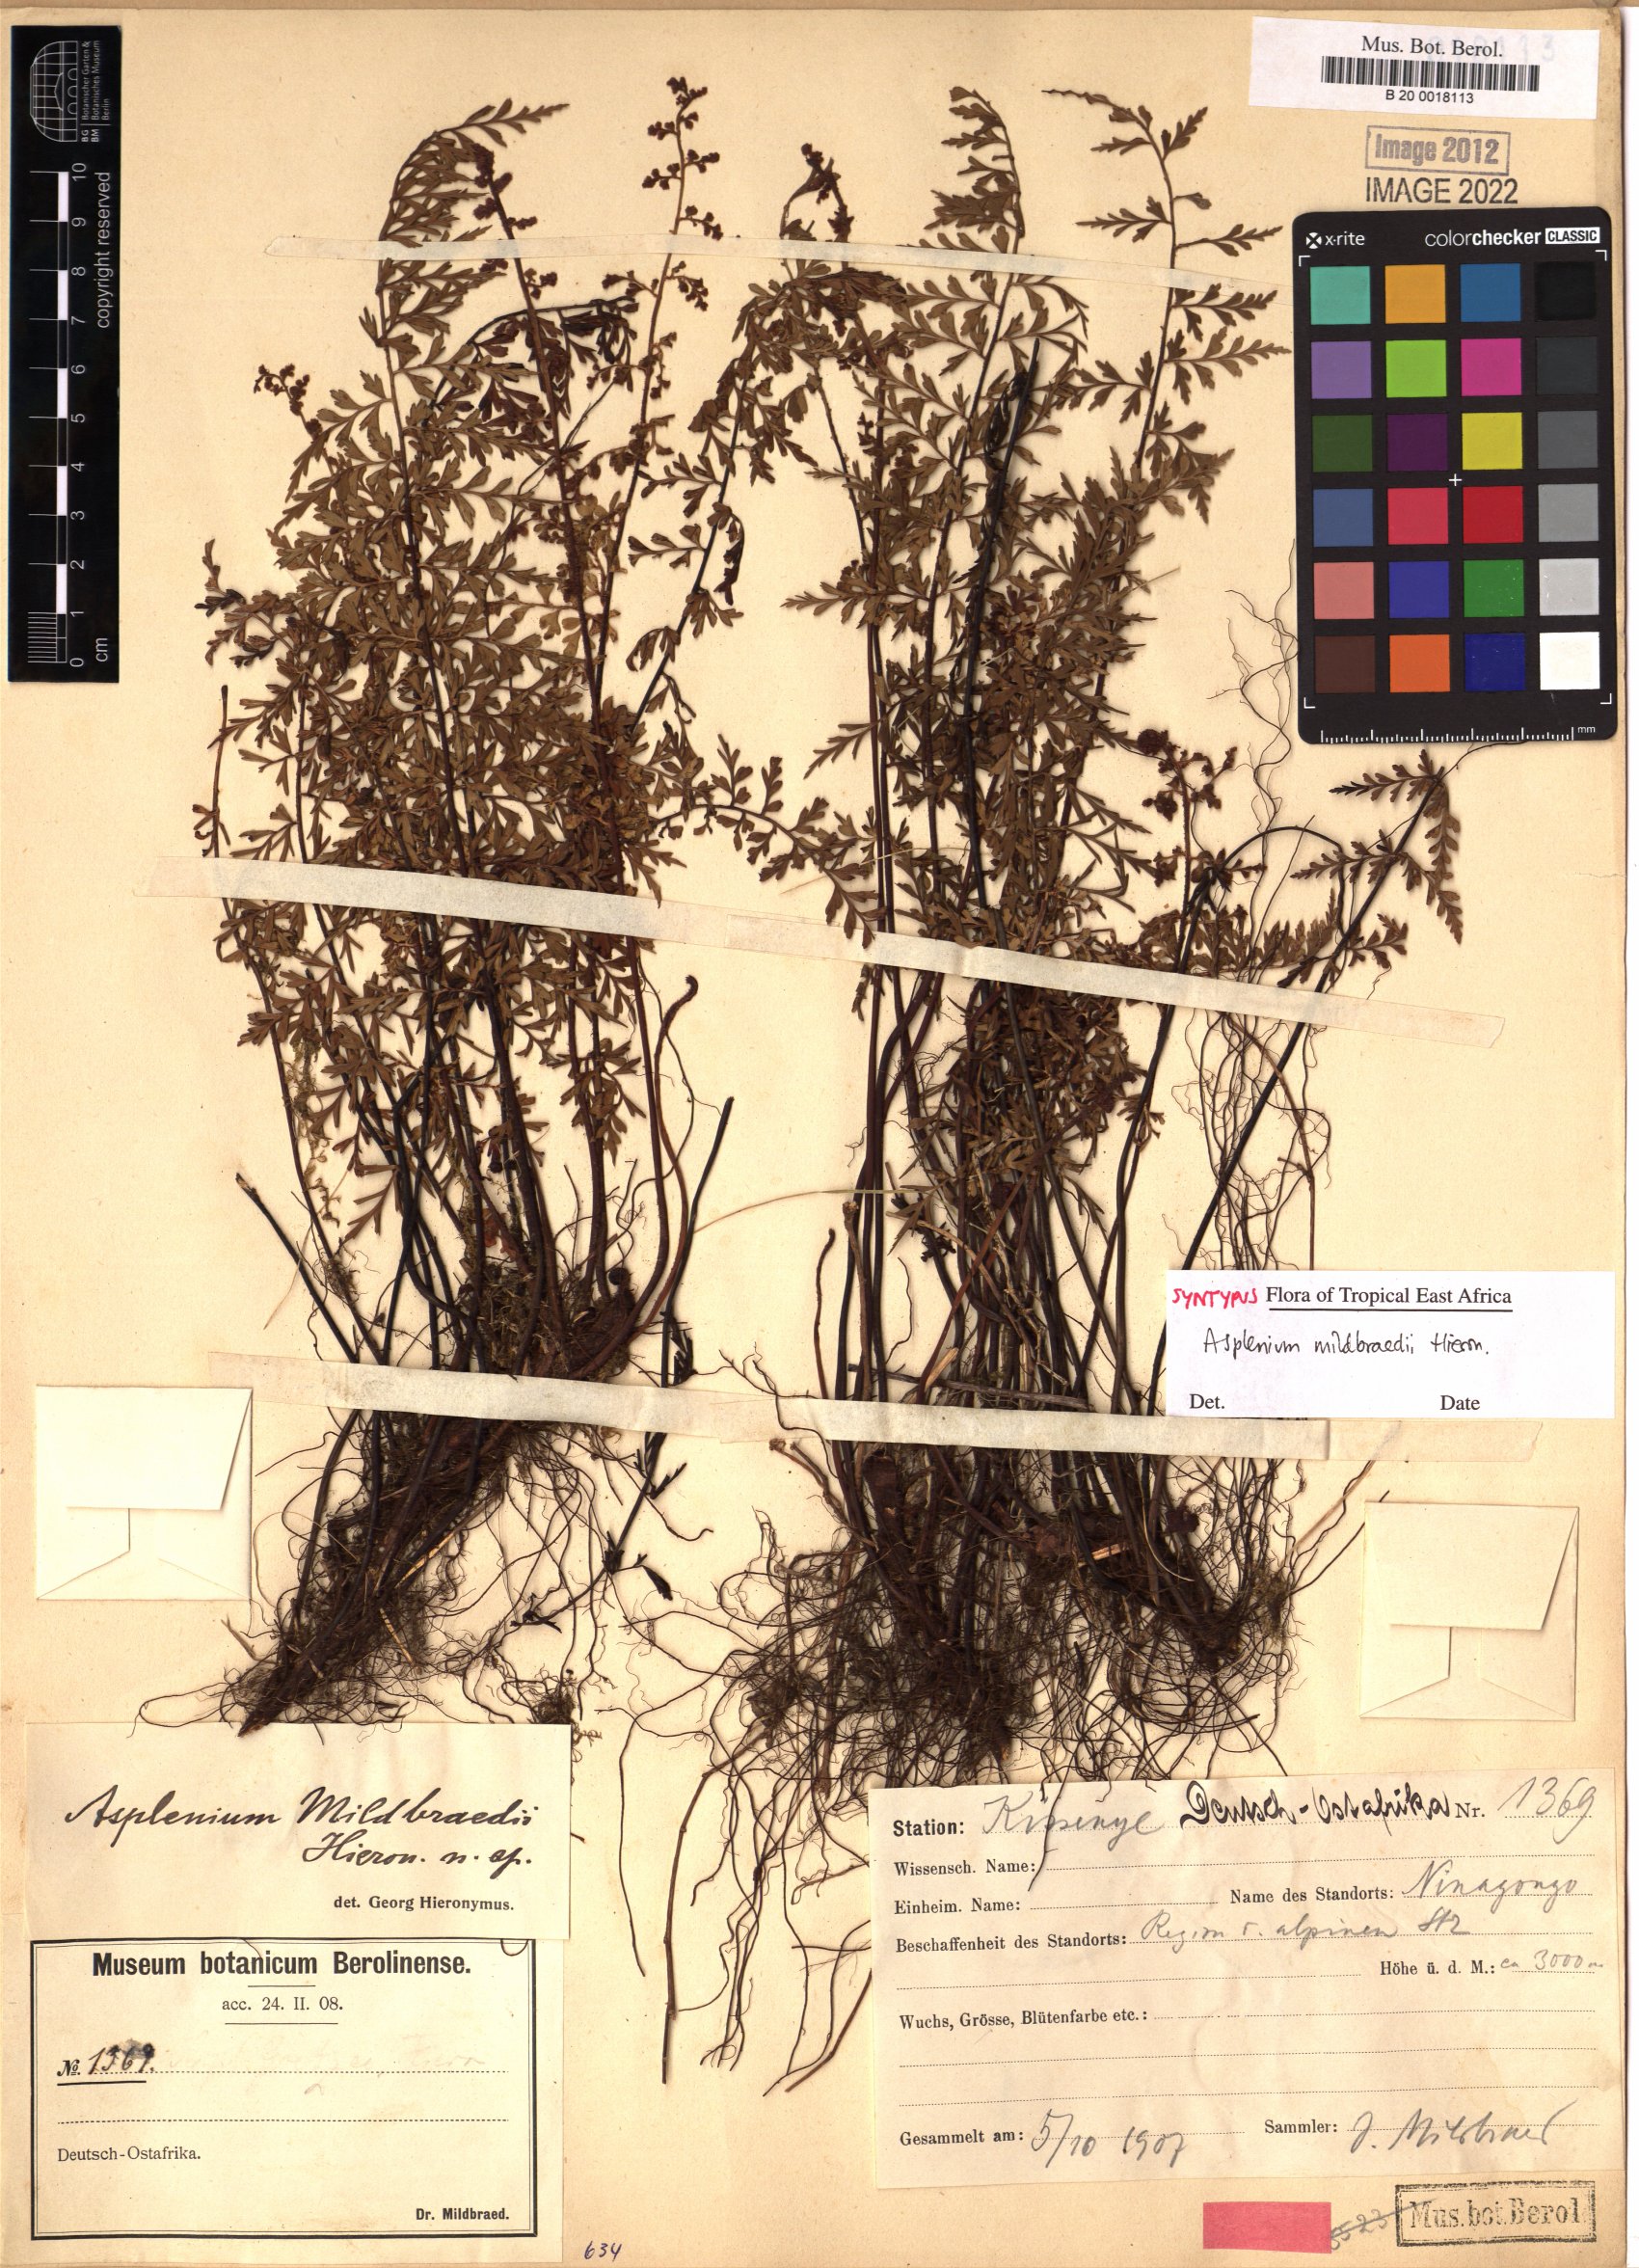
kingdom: Plantae
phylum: Tracheophyta
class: Polypodiopsida
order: Polypodiales
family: Aspleniaceae
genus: Asplenium
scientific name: Asplenium mildbraedii
